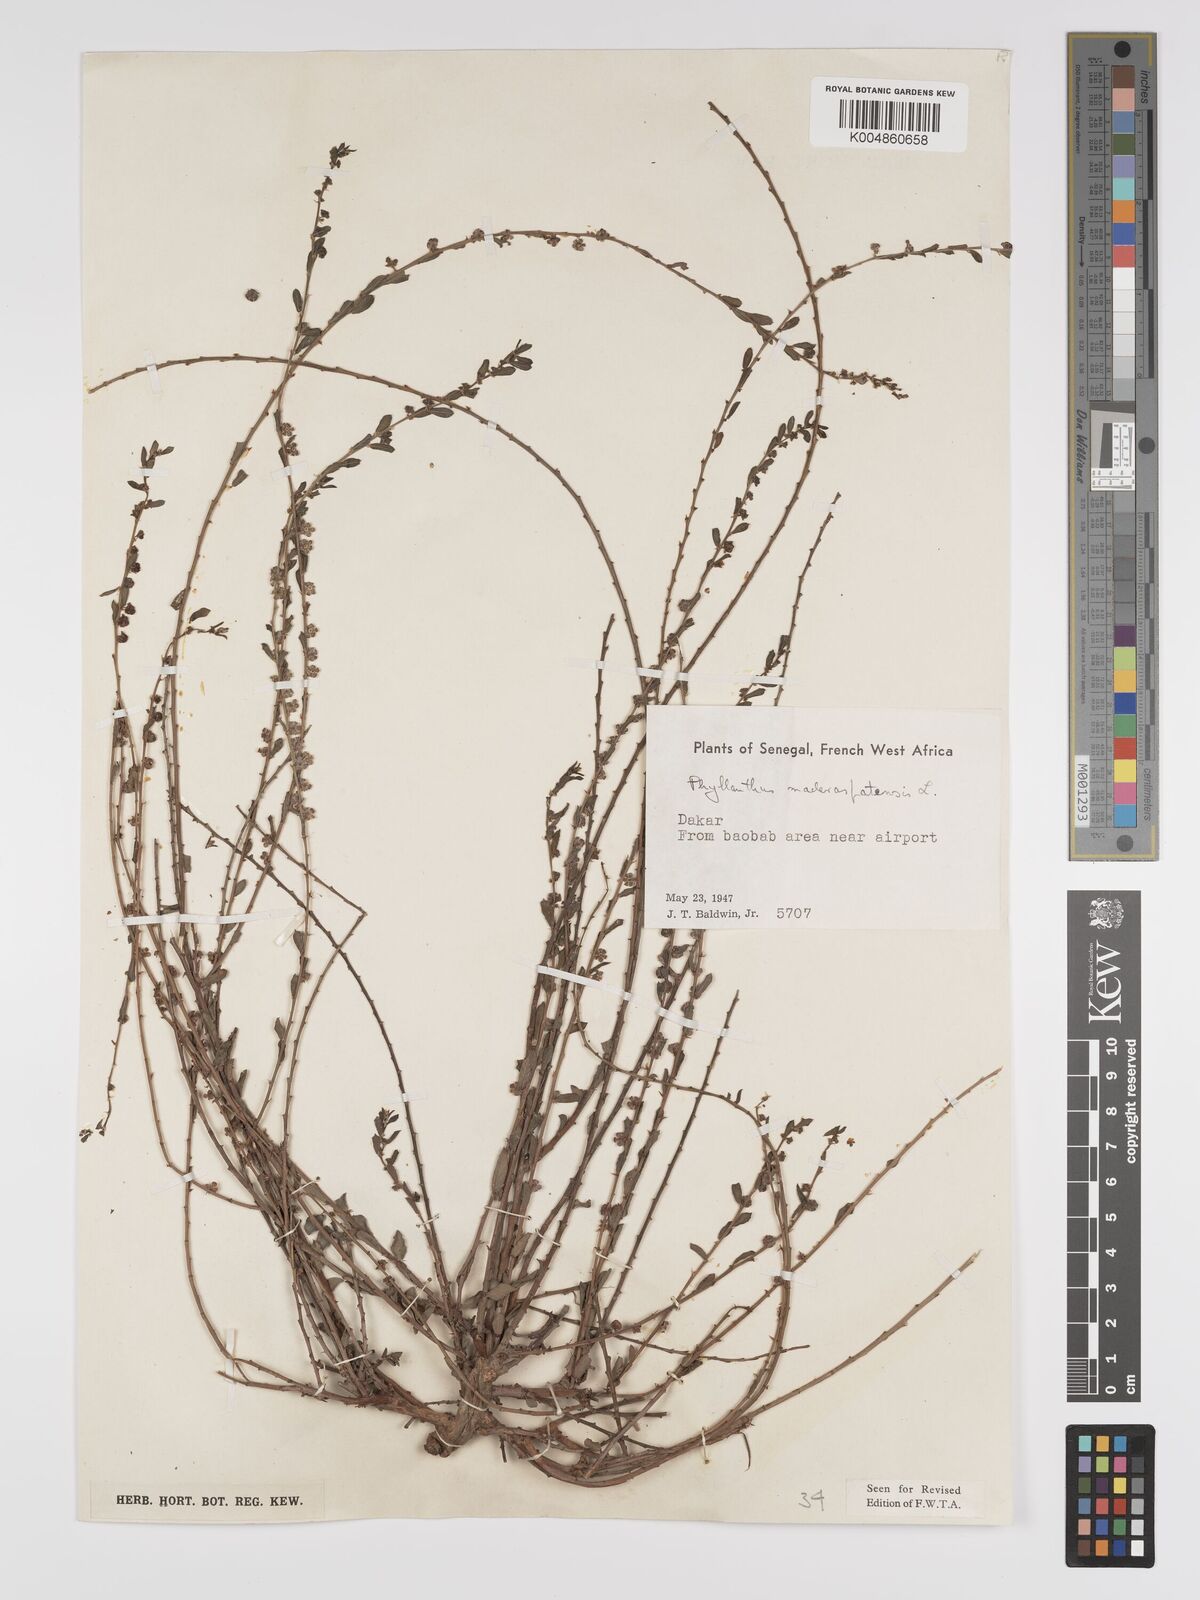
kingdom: Plantae
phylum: Tracheophyta
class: Magnoliopsida
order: Malpighiales
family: Phyllanthaceae
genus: Phyllanthus
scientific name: Phyllanthus
